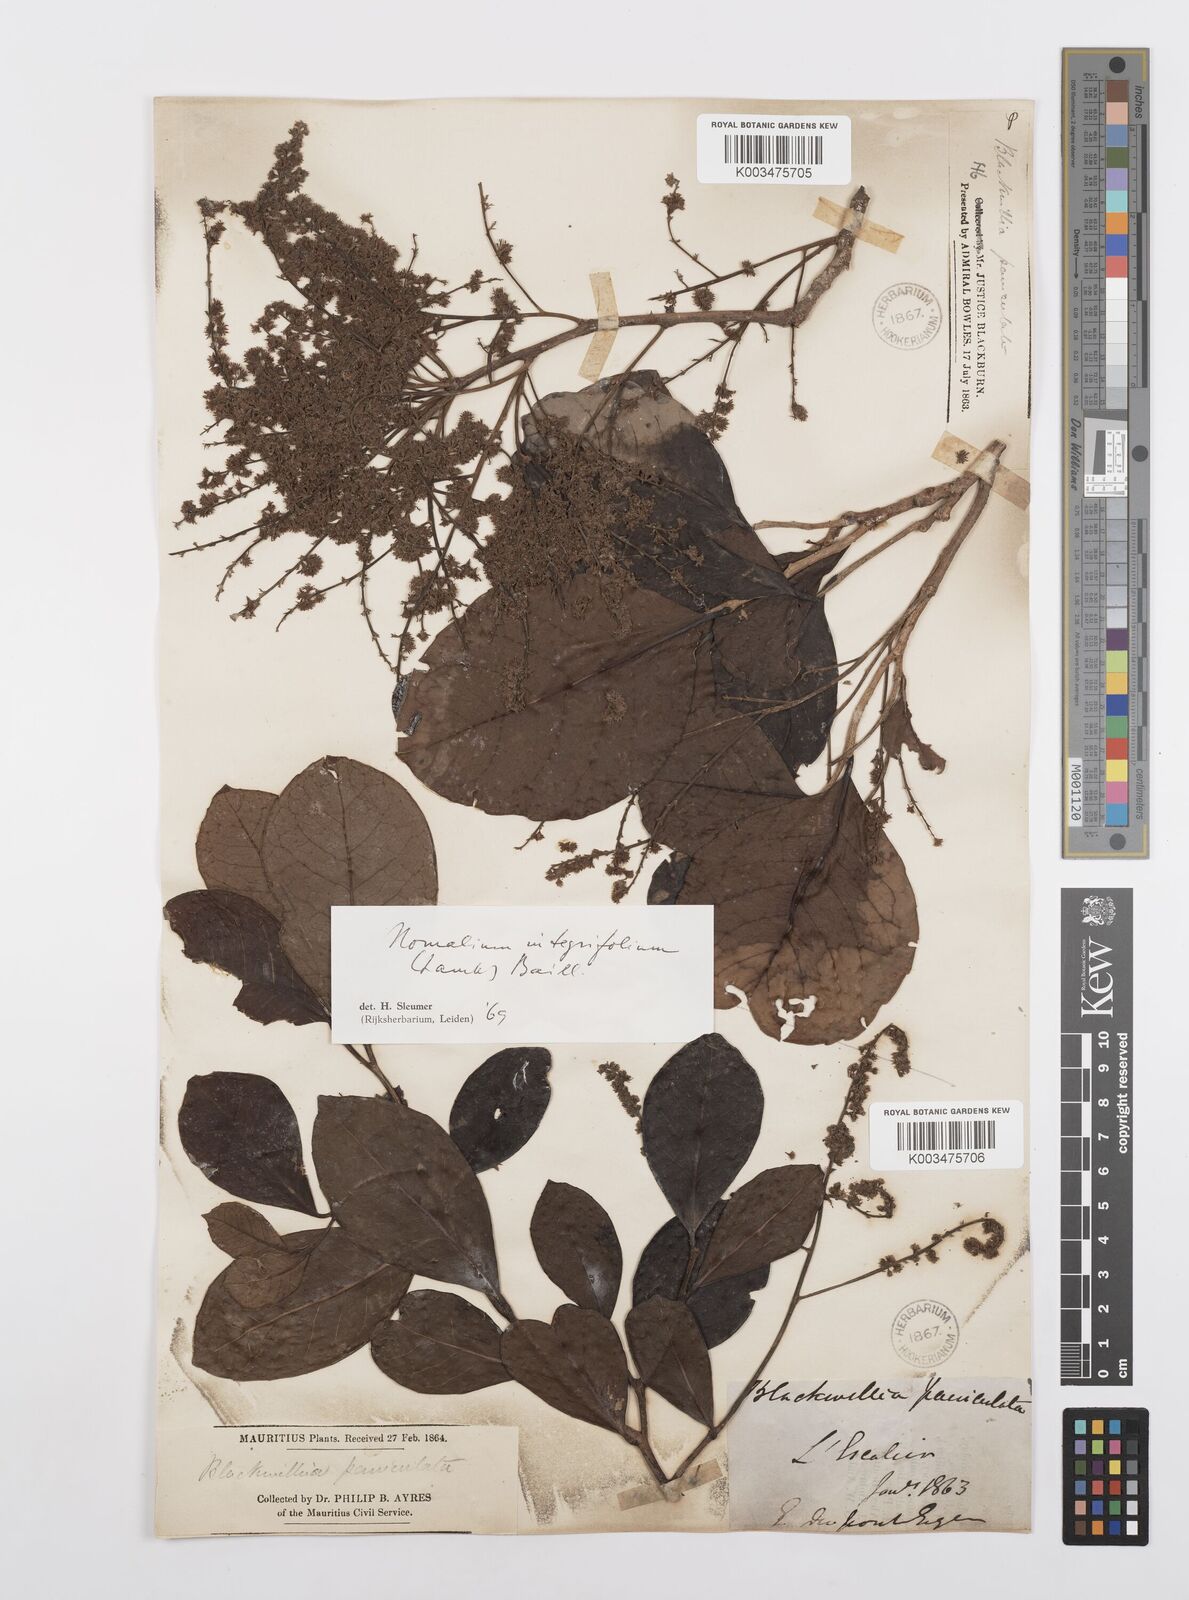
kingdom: Plantae
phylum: Tracheophyta
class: Magnoliopsida
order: Malpighiales
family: Salicaceae
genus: Homalium
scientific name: Homalium integrifolium
